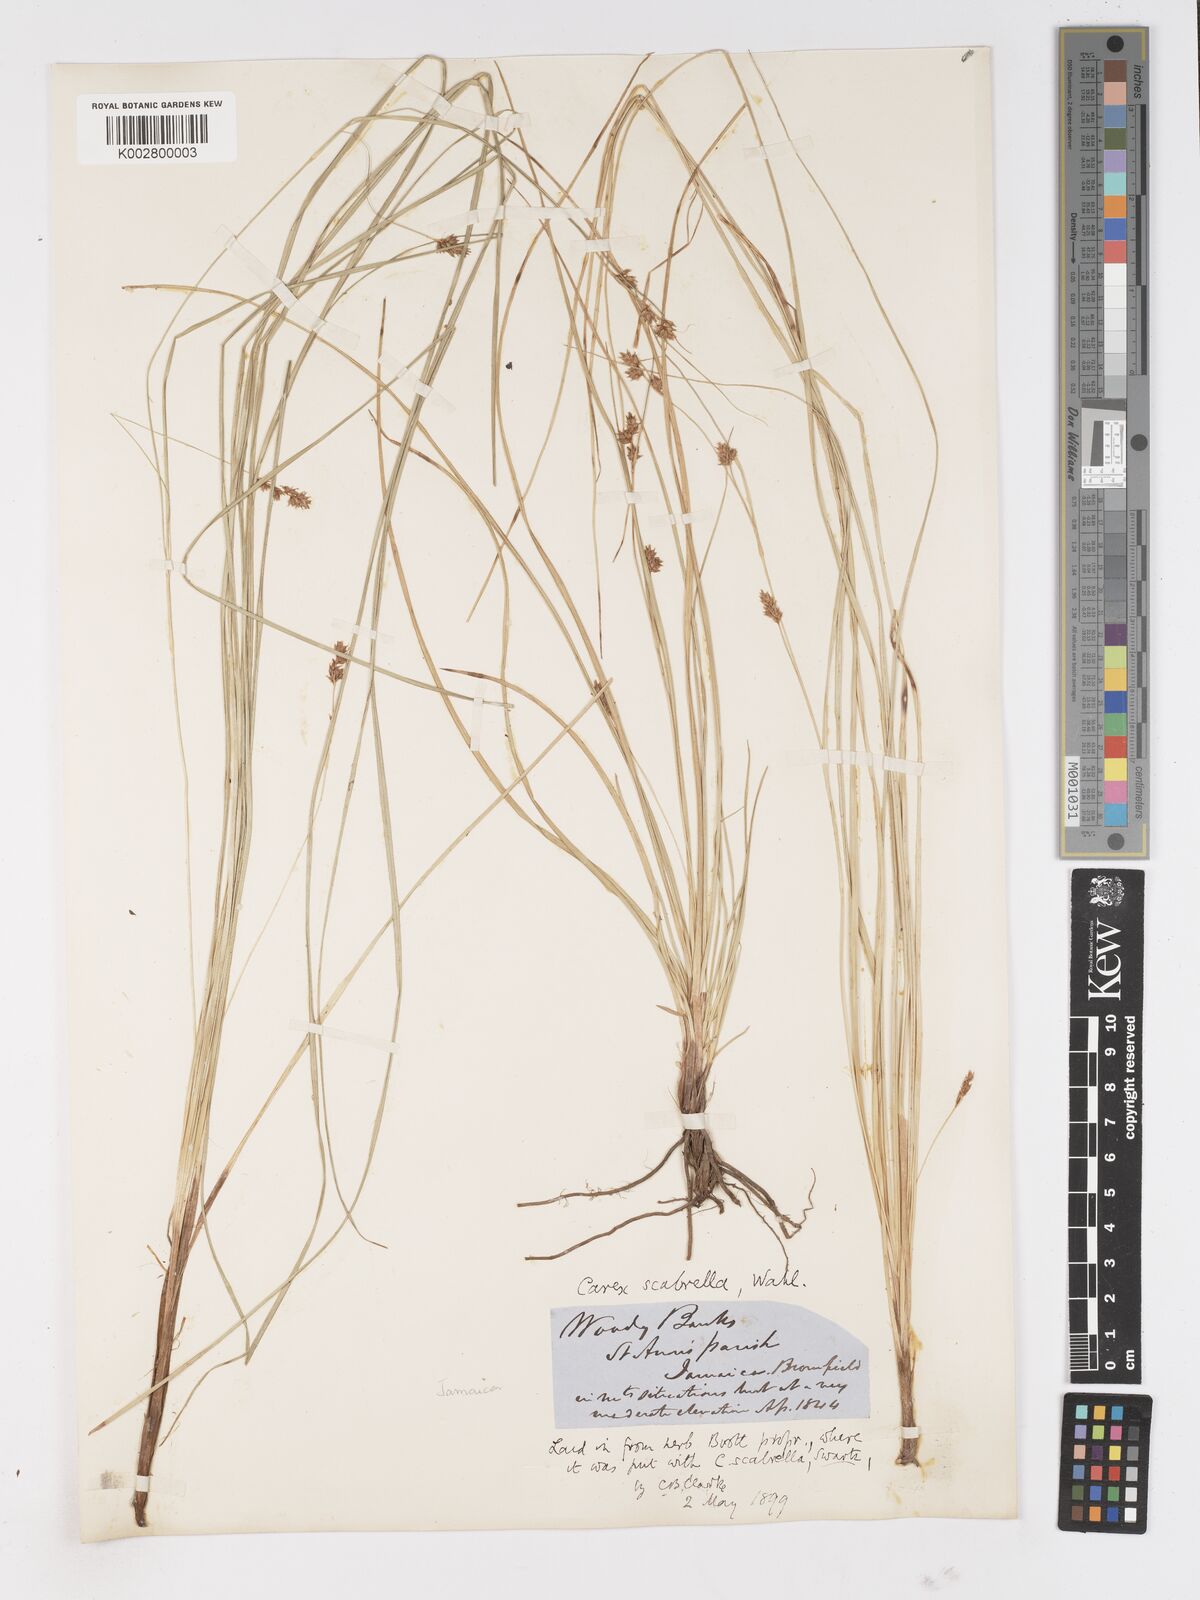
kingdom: Plantae
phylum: Tracheophyta
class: Liliopsida
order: Poales
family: Cyperaceae
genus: Carex
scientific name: Carex
